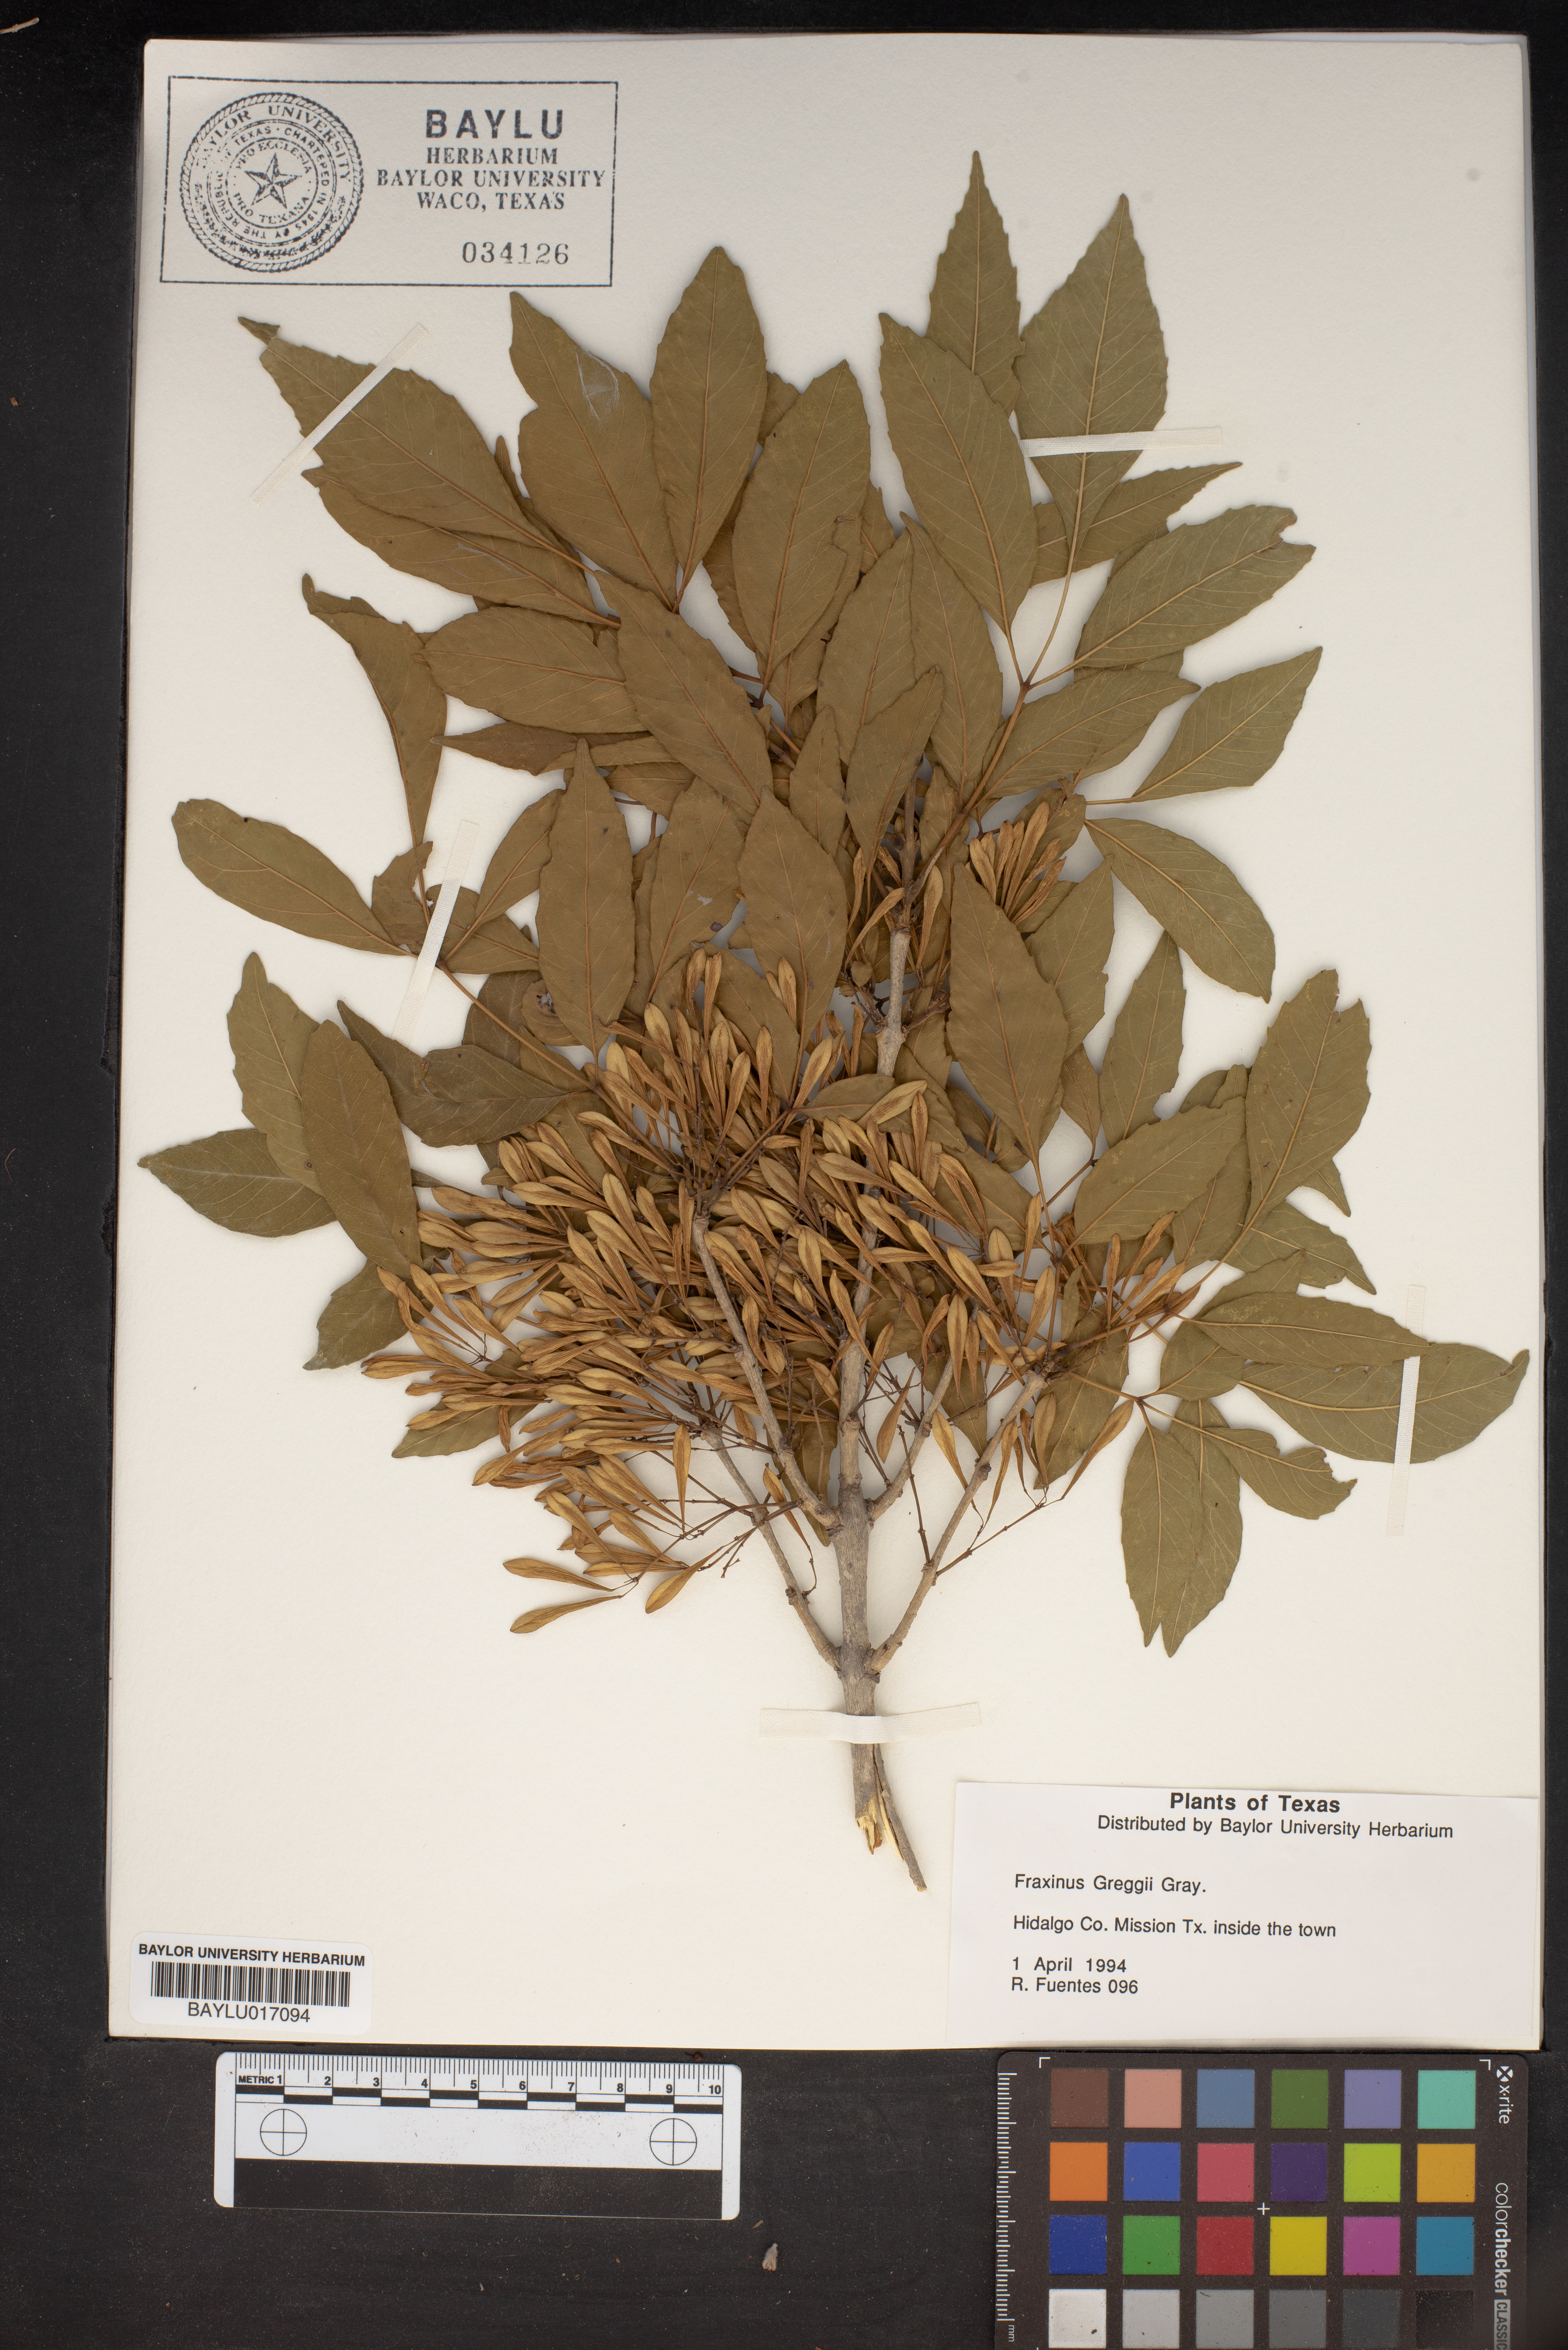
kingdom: Plantae
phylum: Tracheophyta
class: Magnoliopsida
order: Lamiales
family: Oleaceae
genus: Fraxinus
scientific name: Fraxinus greggii
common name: Gregg ash
